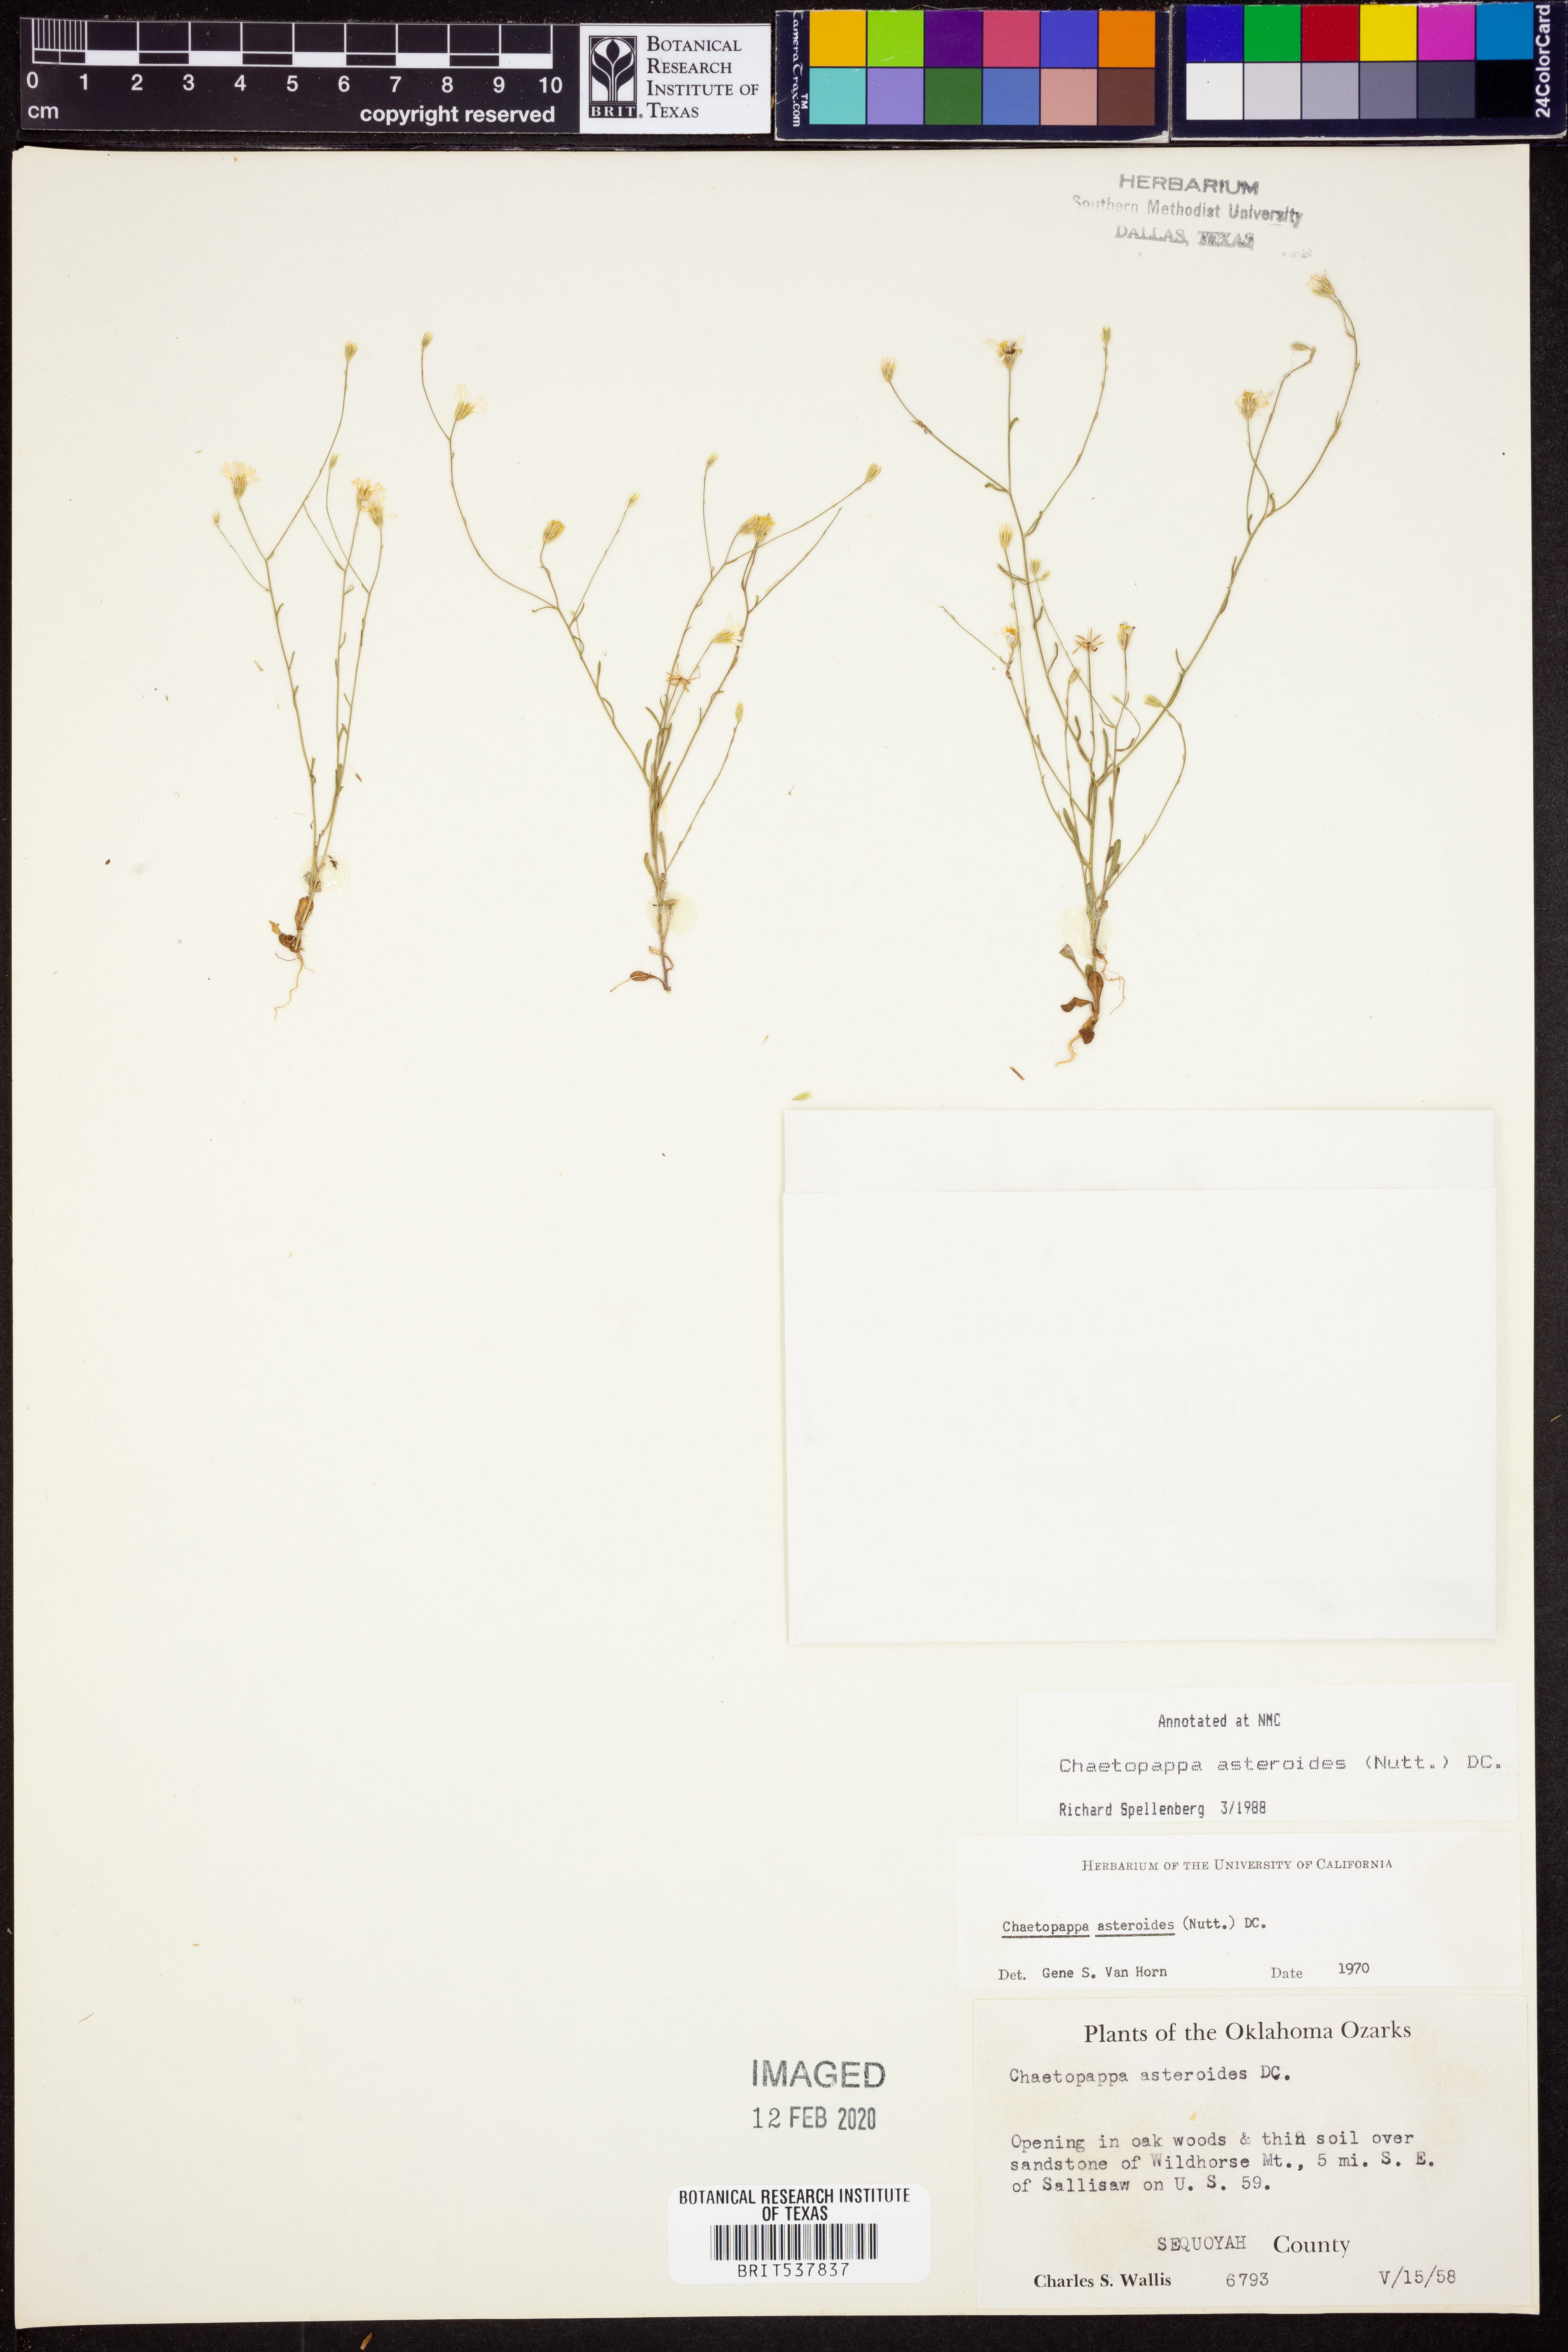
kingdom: Plantae
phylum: Tracheophyta
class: Magnoliopsida
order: Asterales
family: Asteraceae
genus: Chaetopappa
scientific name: Chaetopappa asteroides
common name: Tiny lazy daisy
